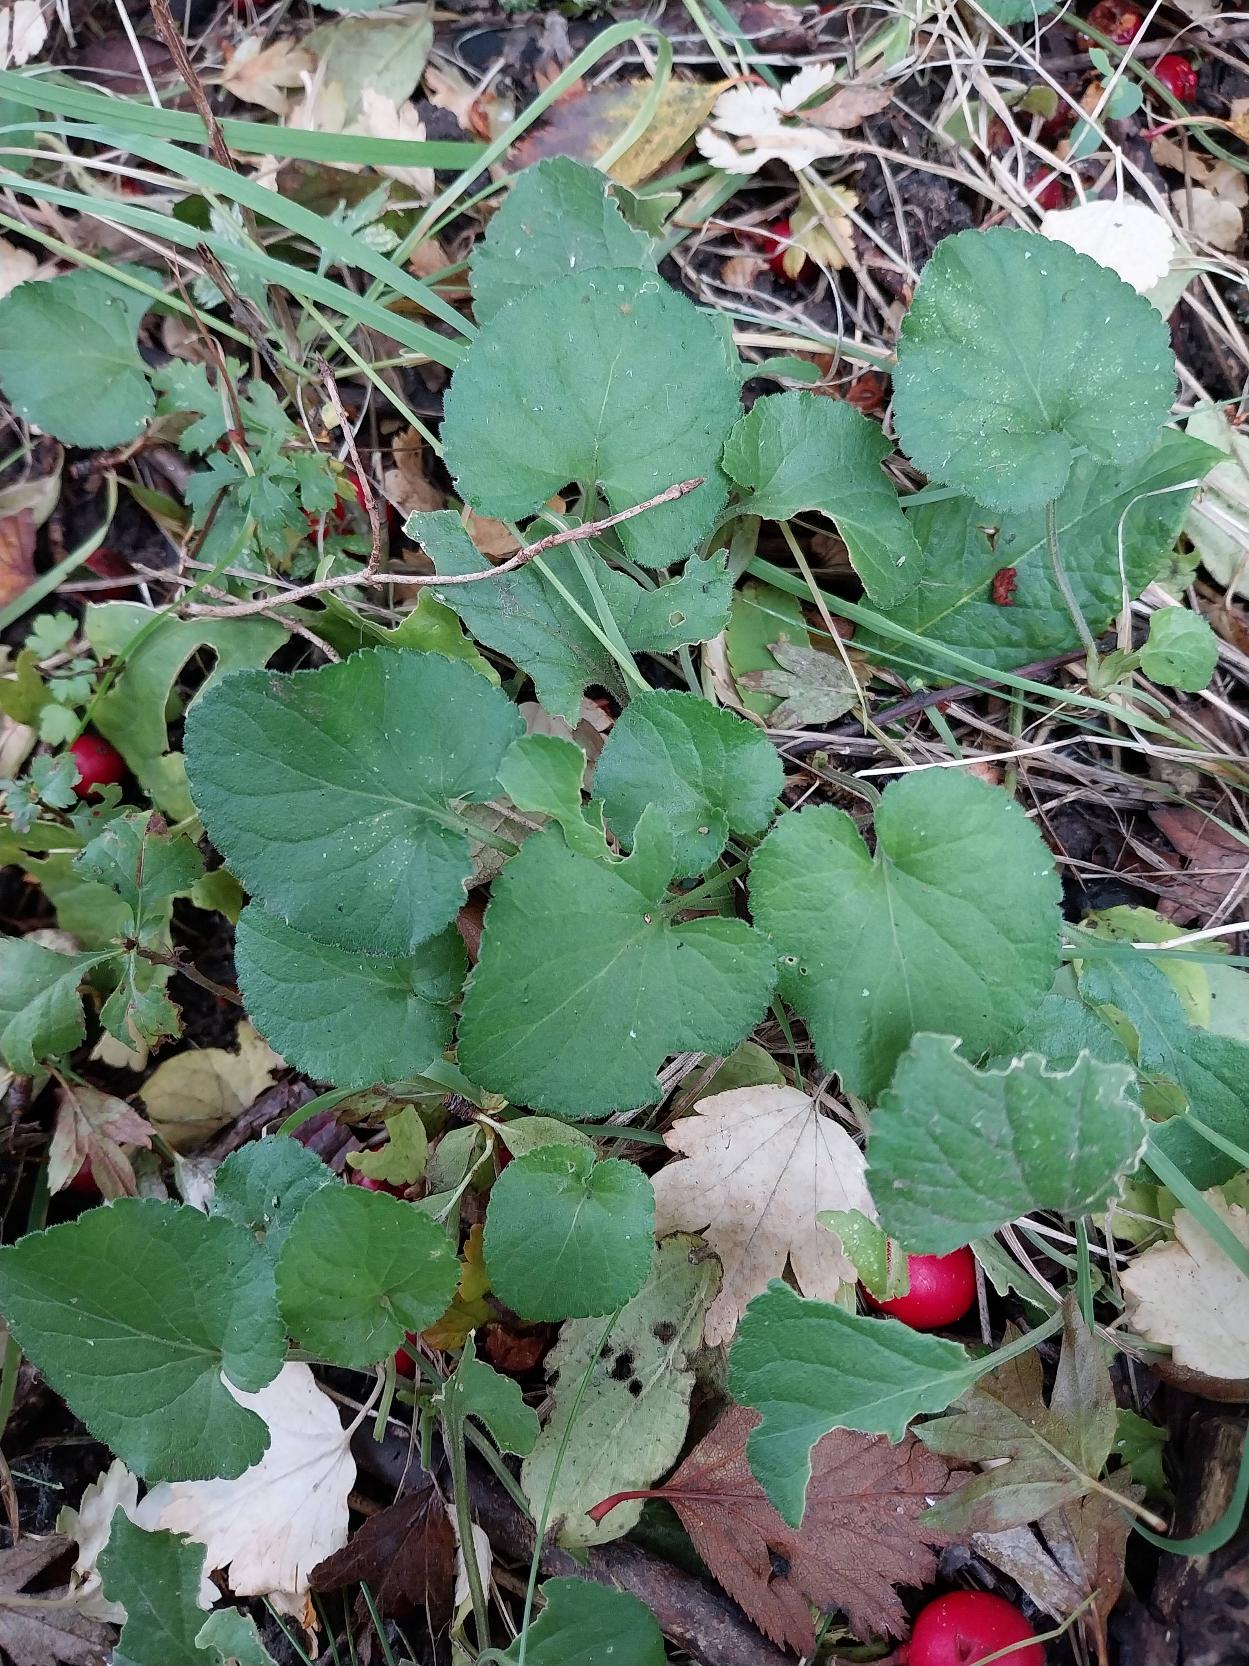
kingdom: Plantae
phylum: Tracheophyta
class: Magnoliopsida
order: Malpighiales
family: Violaceae
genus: Viola
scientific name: Viola odorata
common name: Marts-viol
